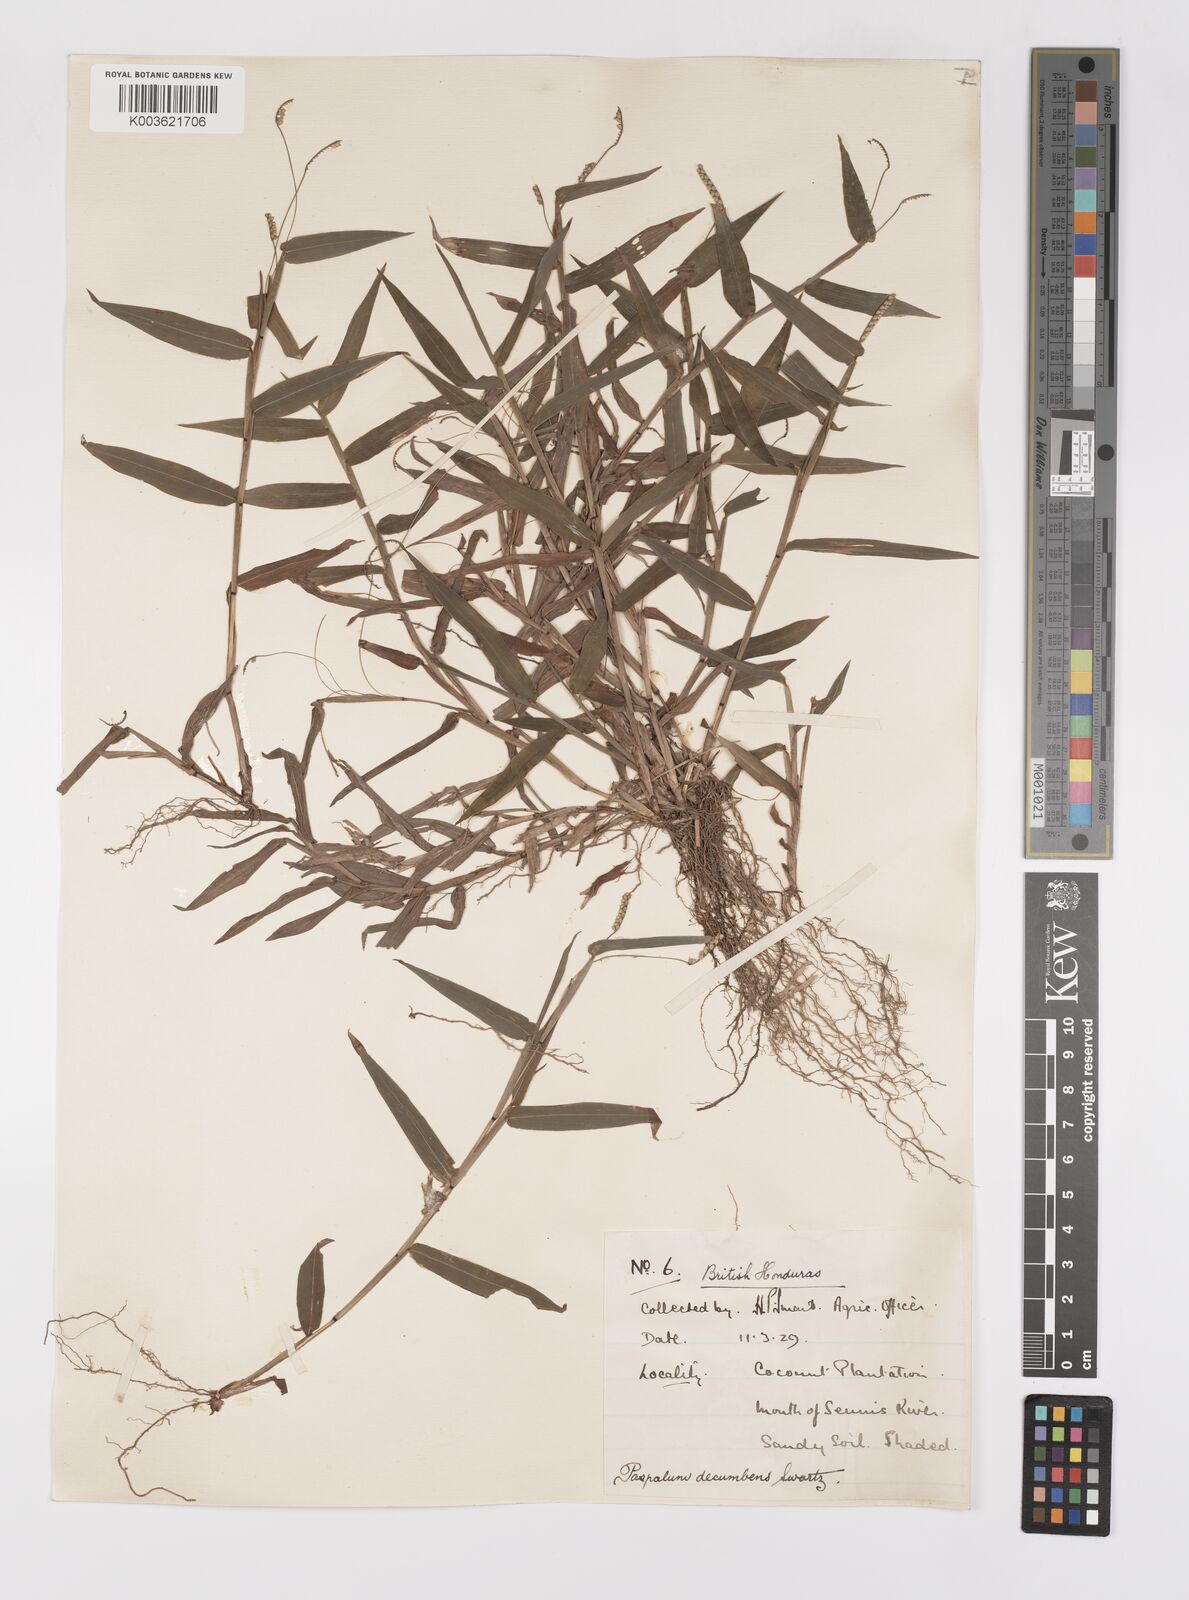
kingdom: Plantae
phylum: Tracheophyta
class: Liliopsida
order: Poales
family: Poaceae
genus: Paspalum
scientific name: Paspalum
